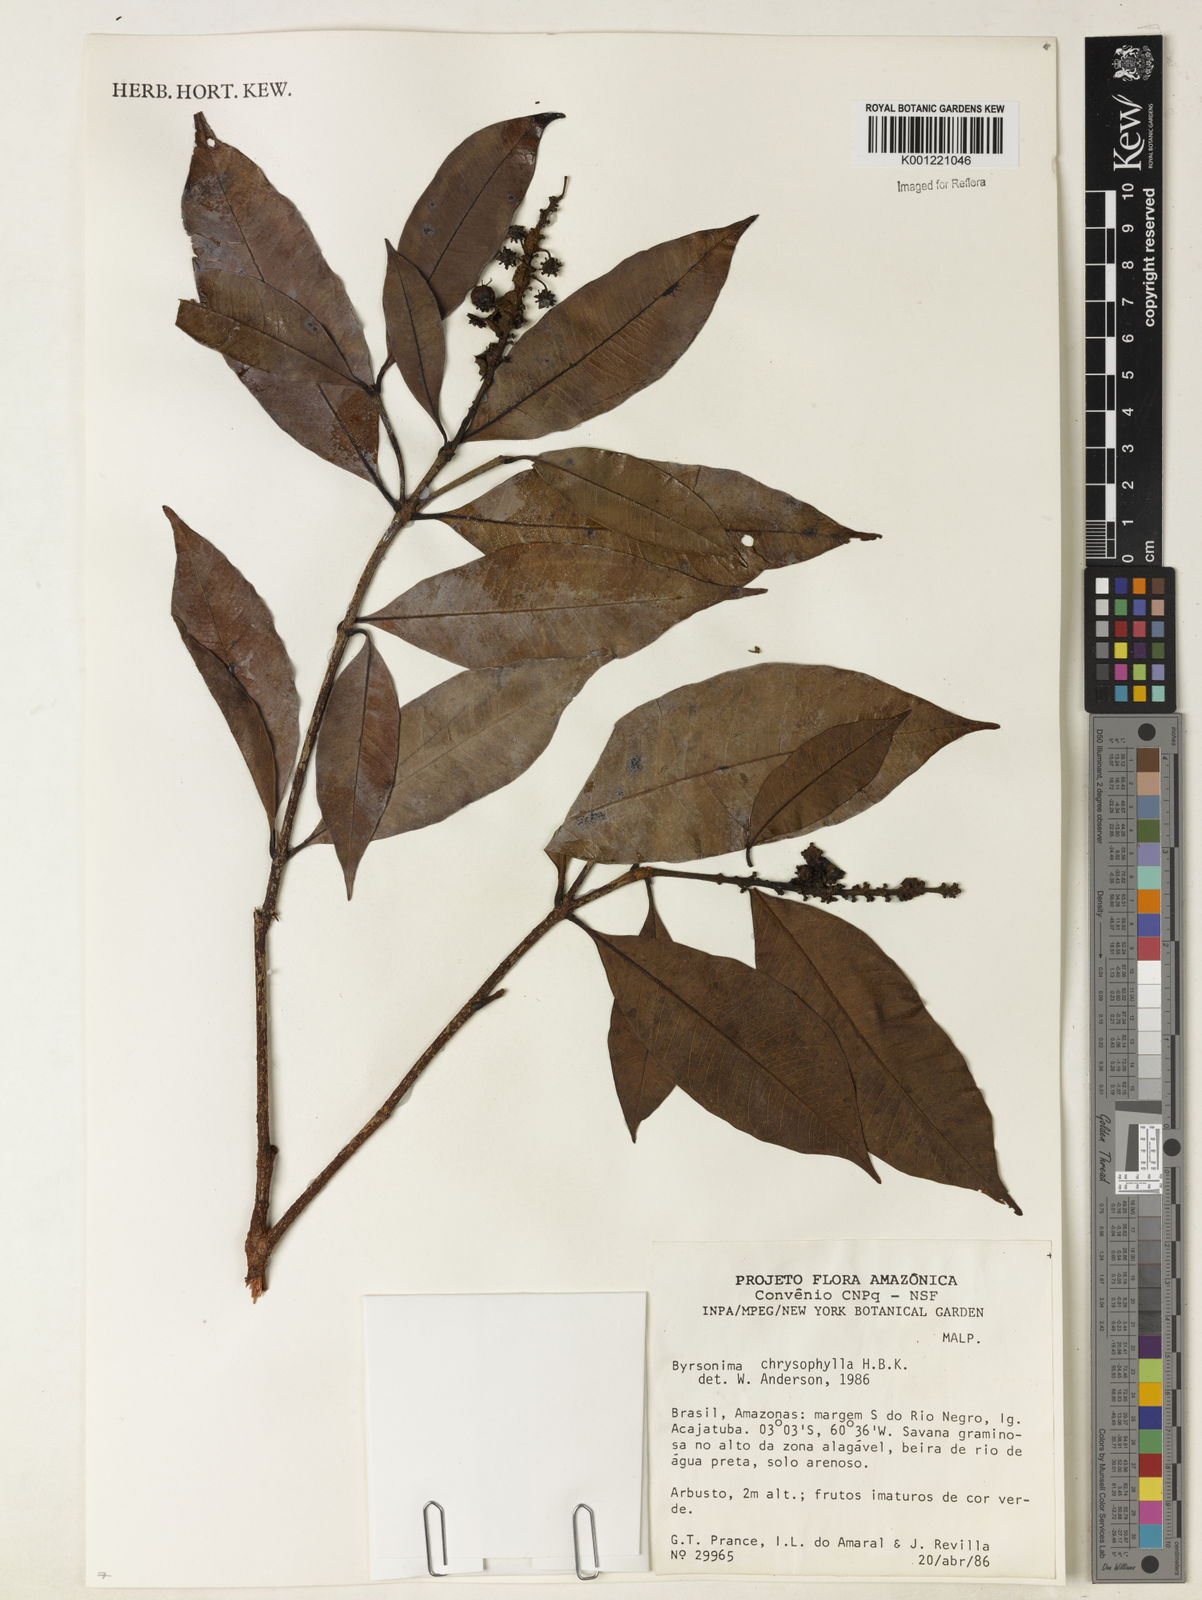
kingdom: Plantae
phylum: Tracheophyta
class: Magnoliopsida
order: Malpighiales
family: Malpighiaceae
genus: Byrsonima
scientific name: Byrsonima chrysophylla
